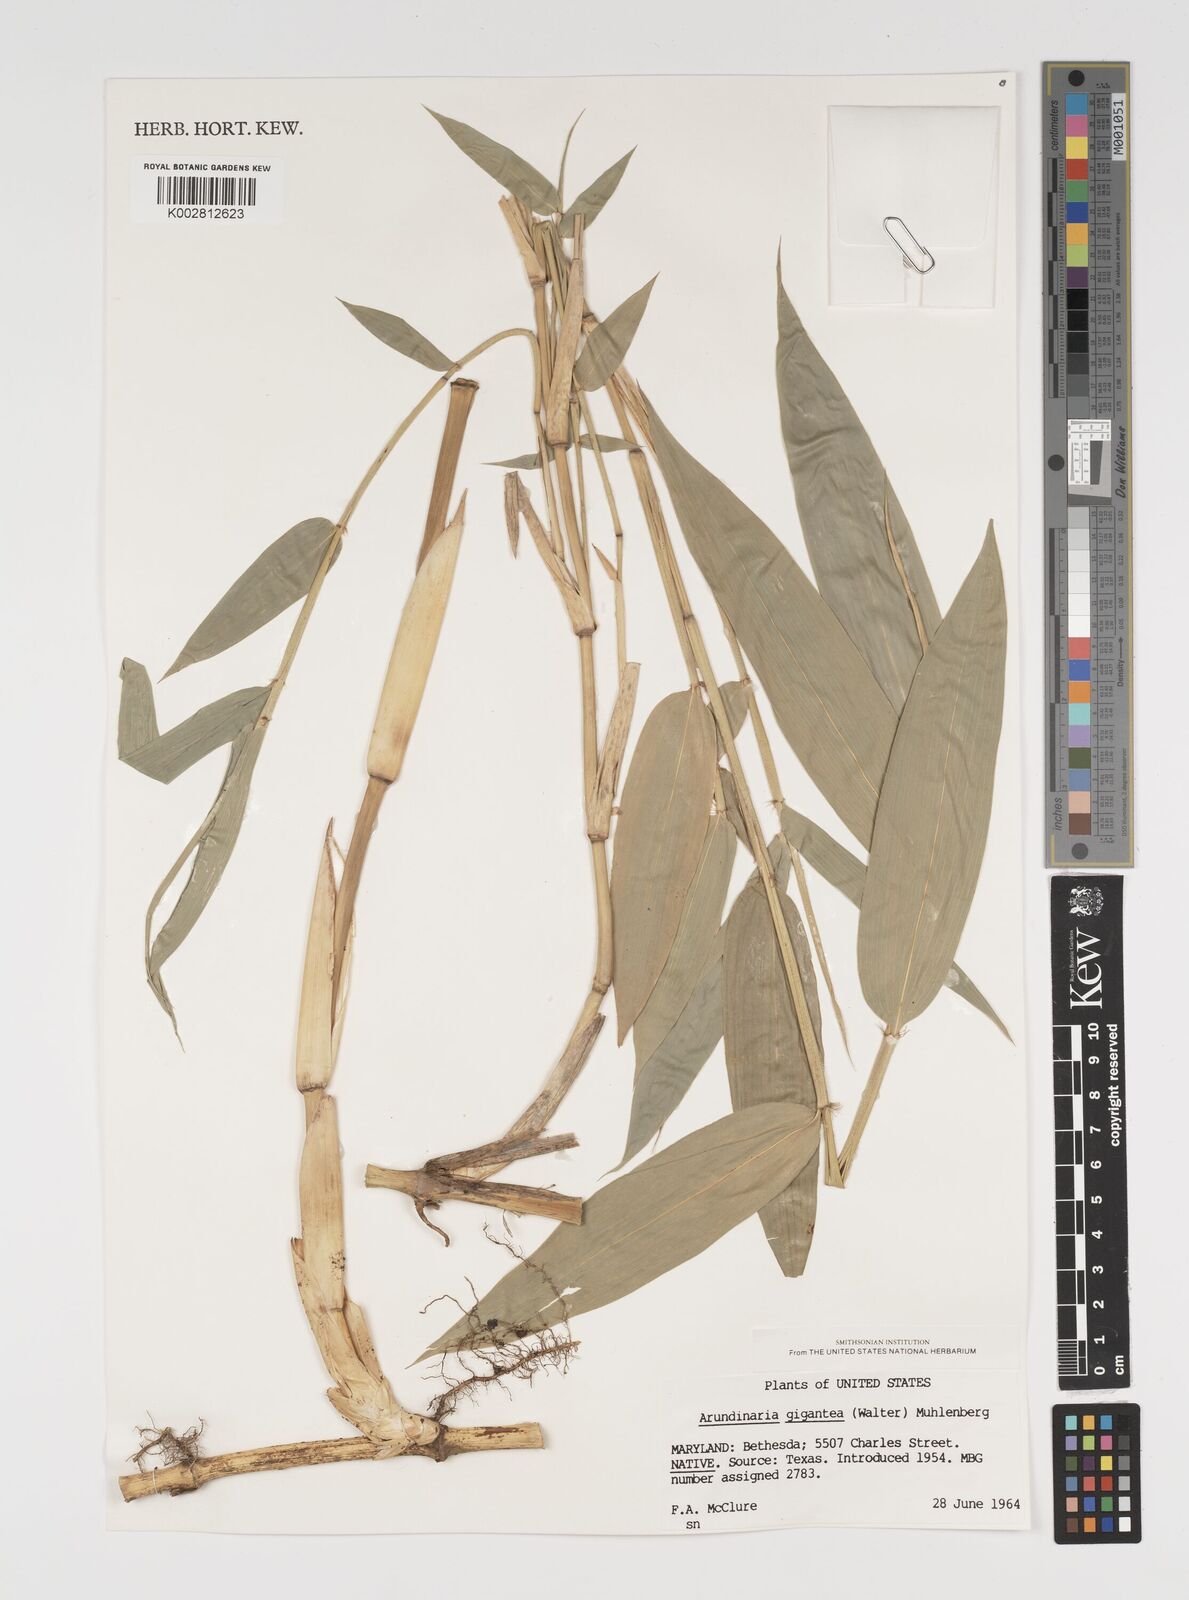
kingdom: Plantae
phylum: Tracheophyta
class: Liliopsida
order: Poales
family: Poaceae
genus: Arundinaria
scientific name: Arundinaria
